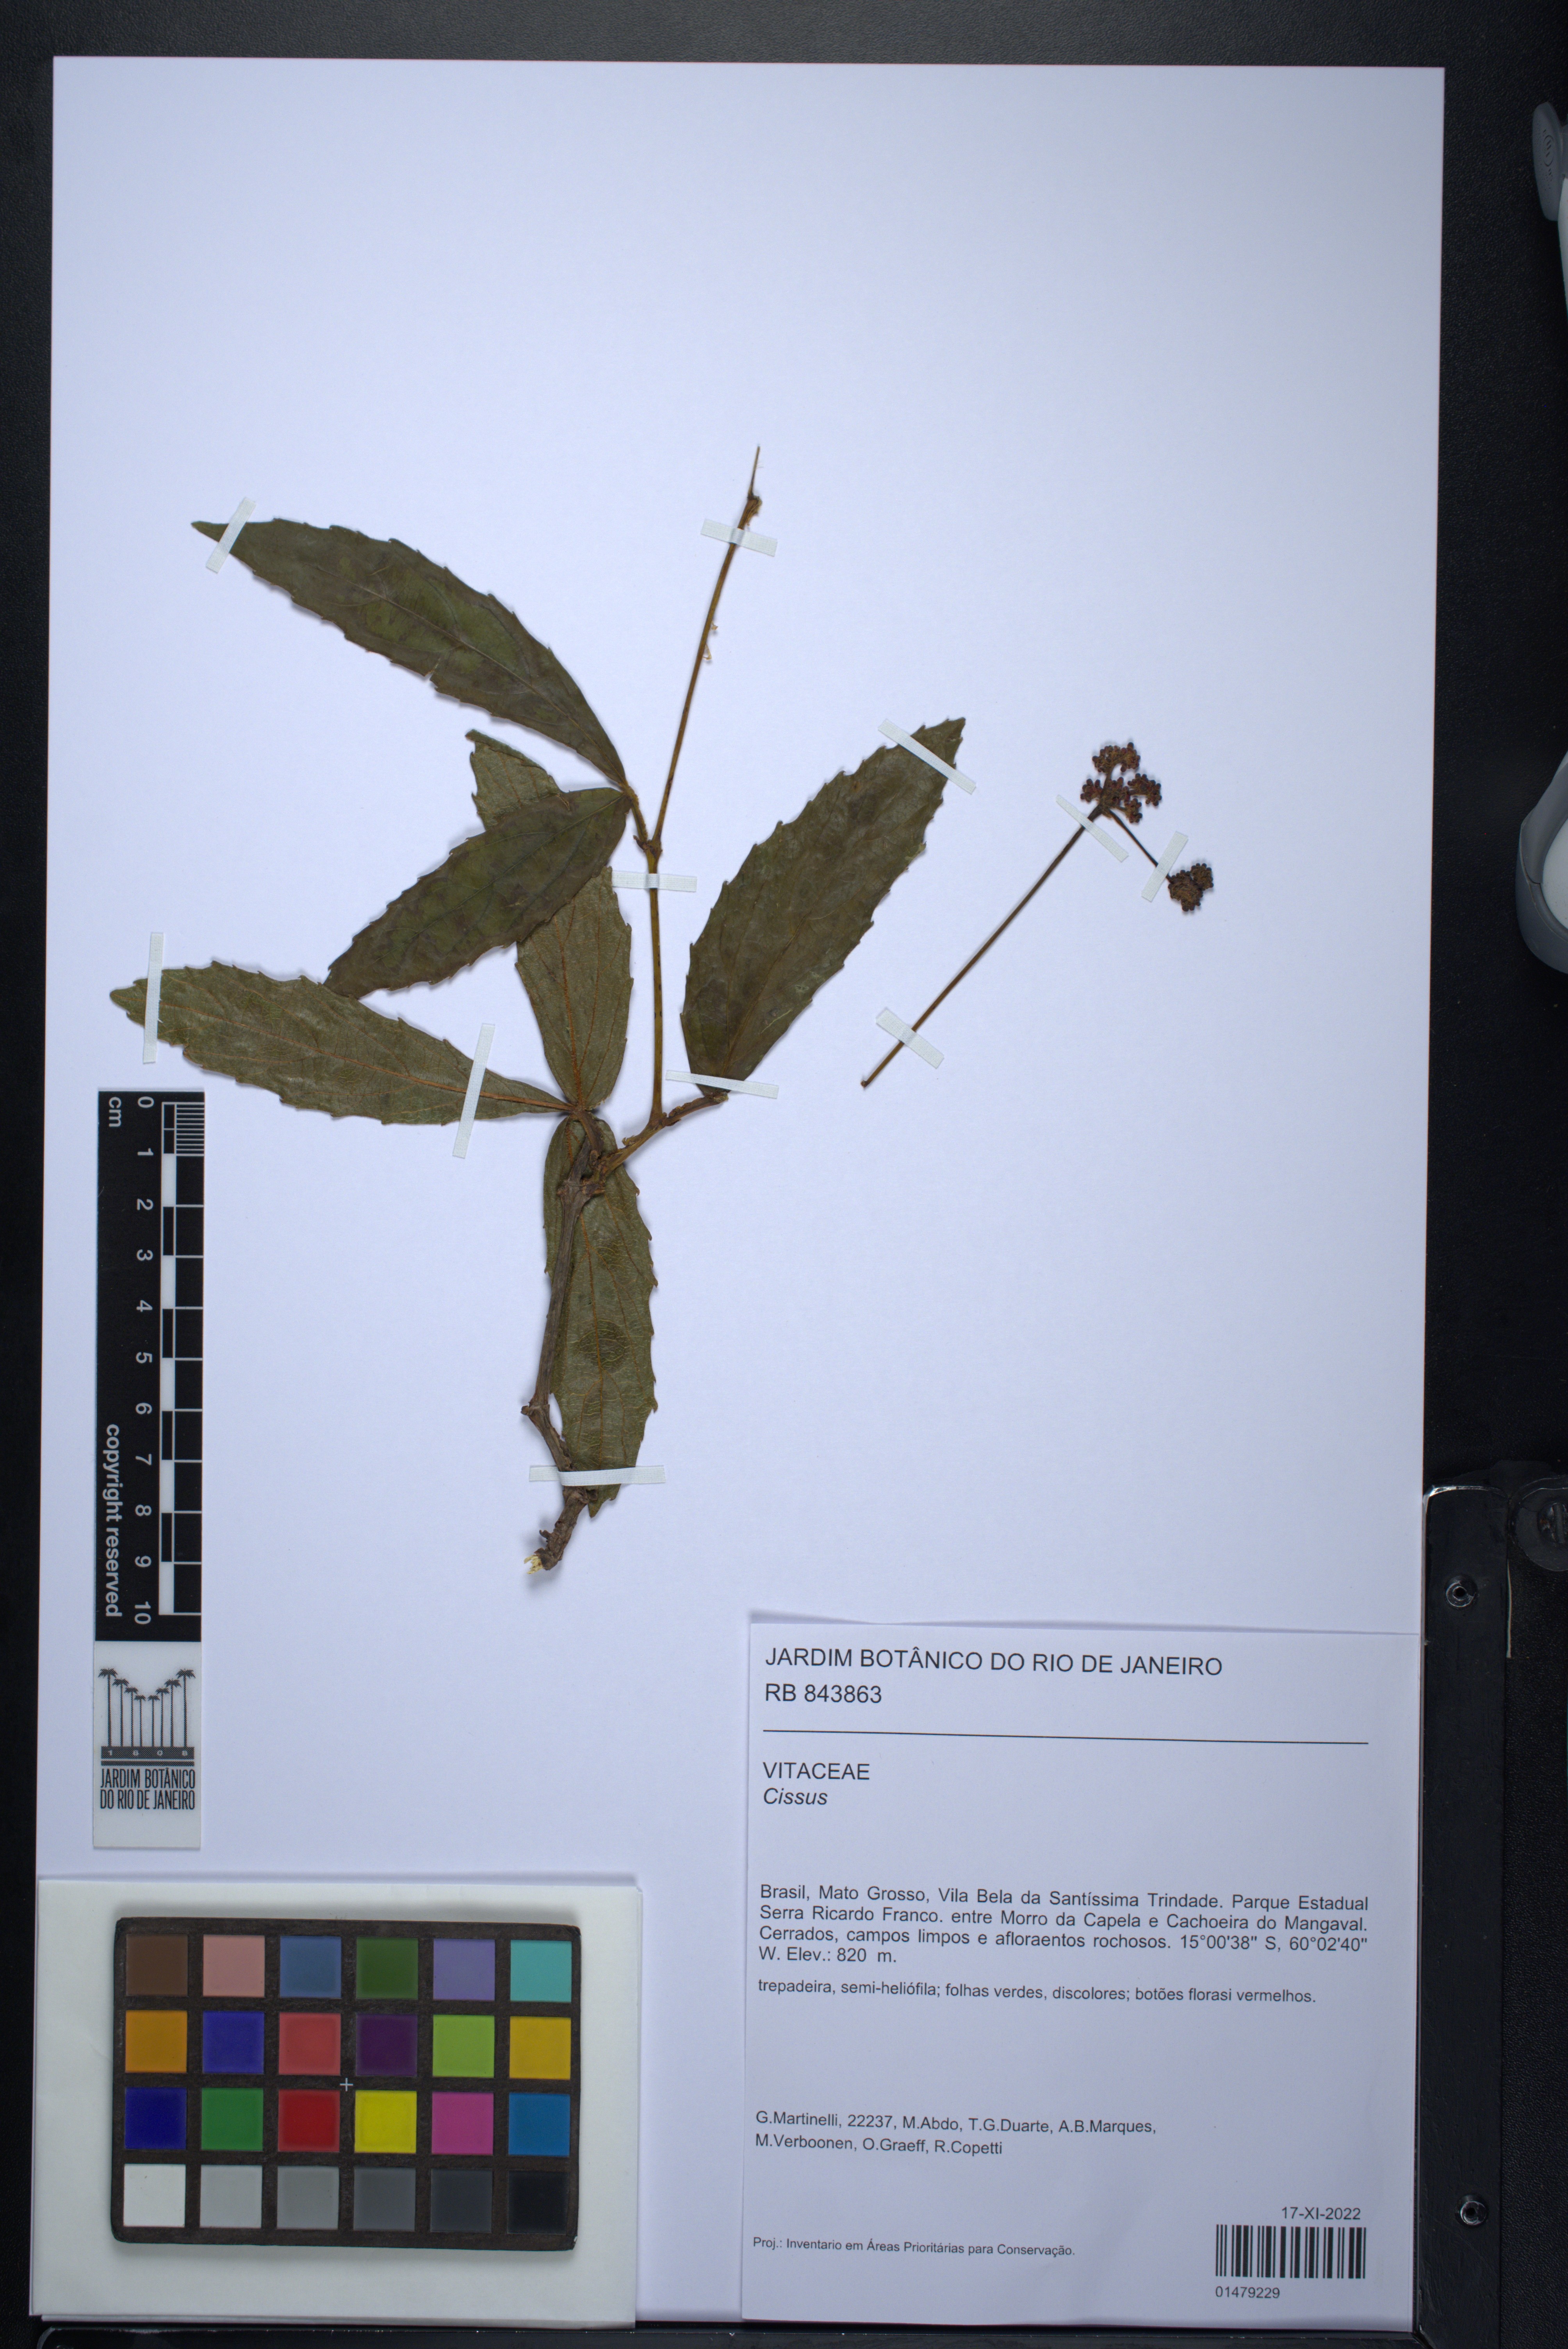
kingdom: Plantae
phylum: Tracheophyta
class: Magnoliopsida
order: Vitales
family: Vitaceae
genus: Cissus
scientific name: Cissus
